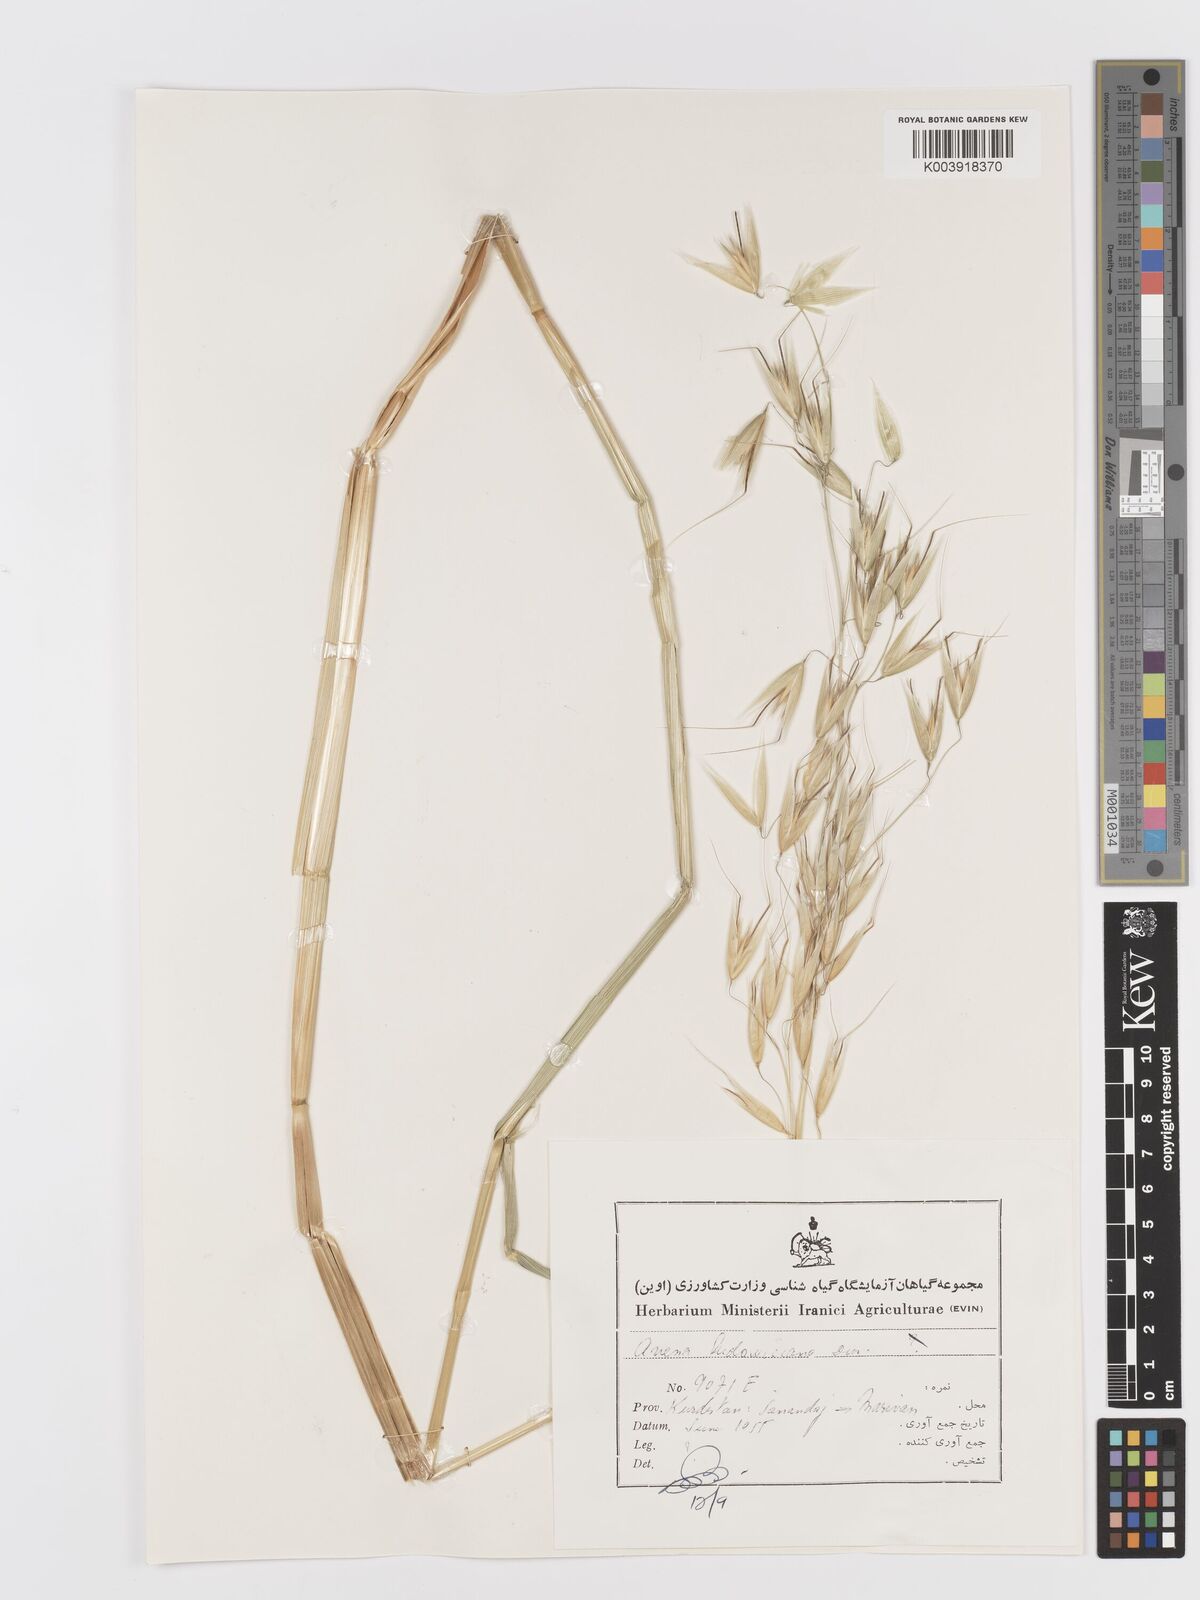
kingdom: Plantae
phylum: Tracheophyta
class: Liliopsida
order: Poales
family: Poaceae
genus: Avena
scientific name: Avena sterilis
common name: Animated oat
